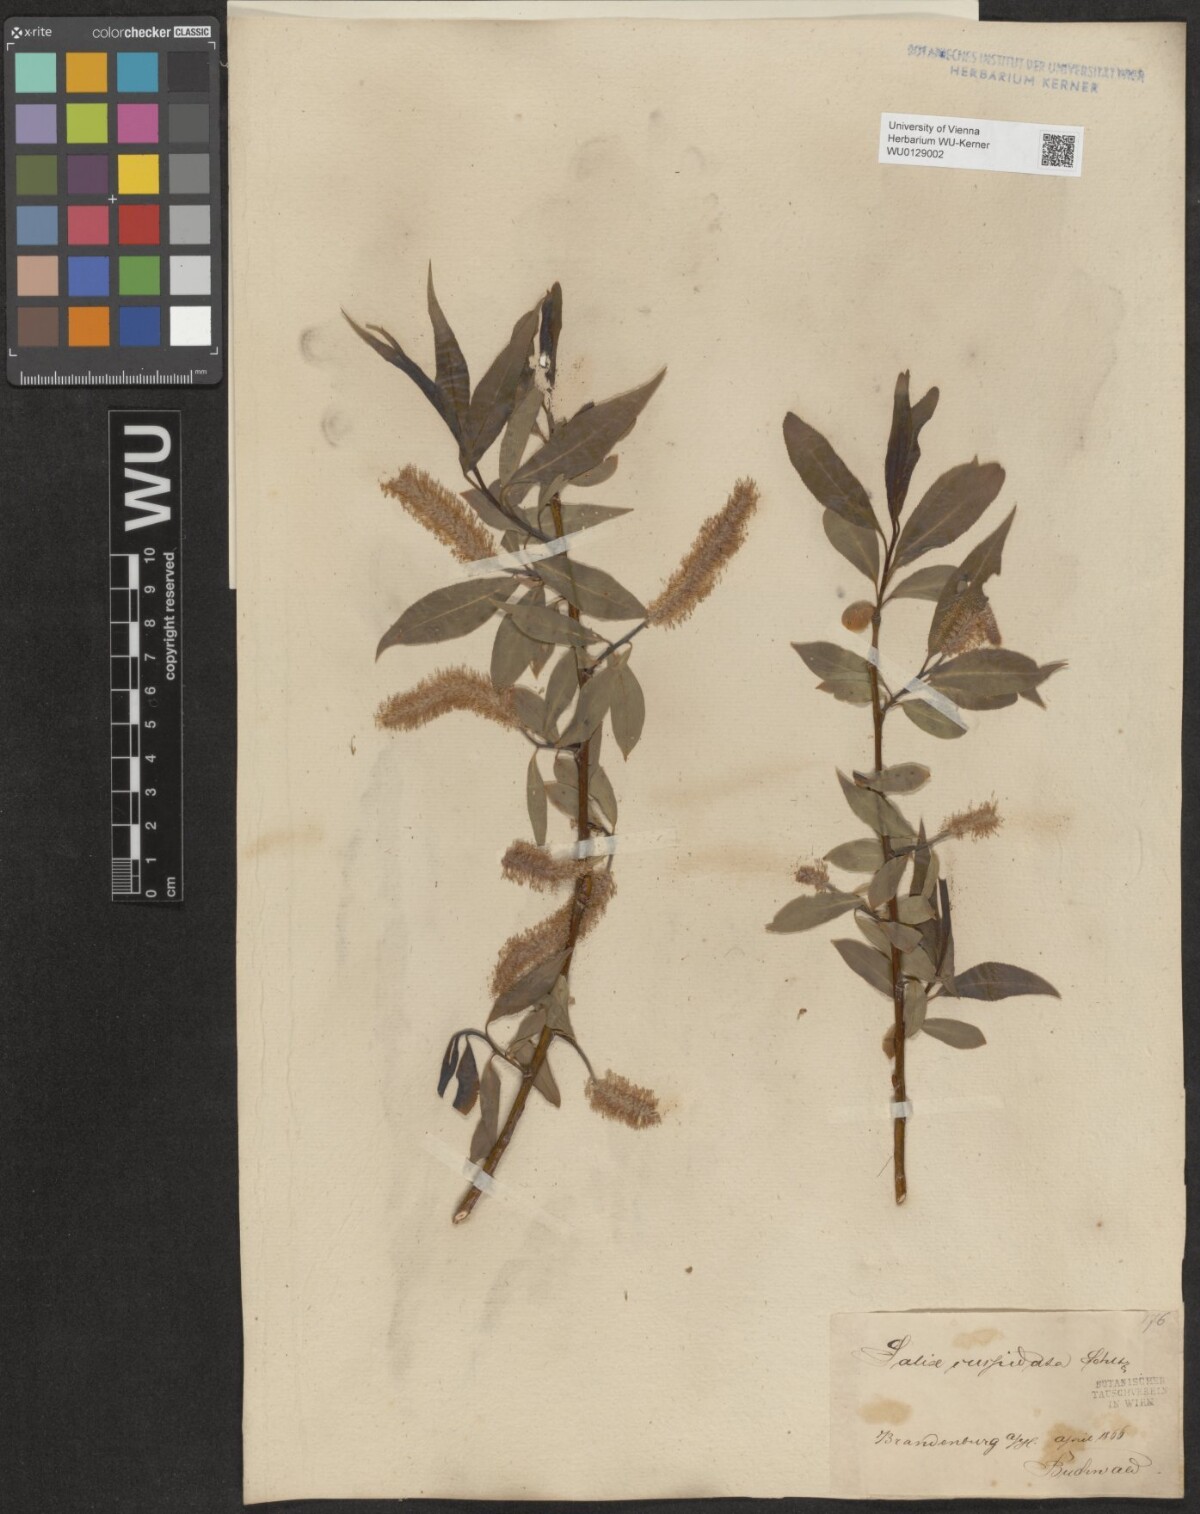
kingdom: Plantae
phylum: Tracheophyta
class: Magnoliopsida
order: Malpighiales
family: Salicaceae
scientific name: Salicaceae
